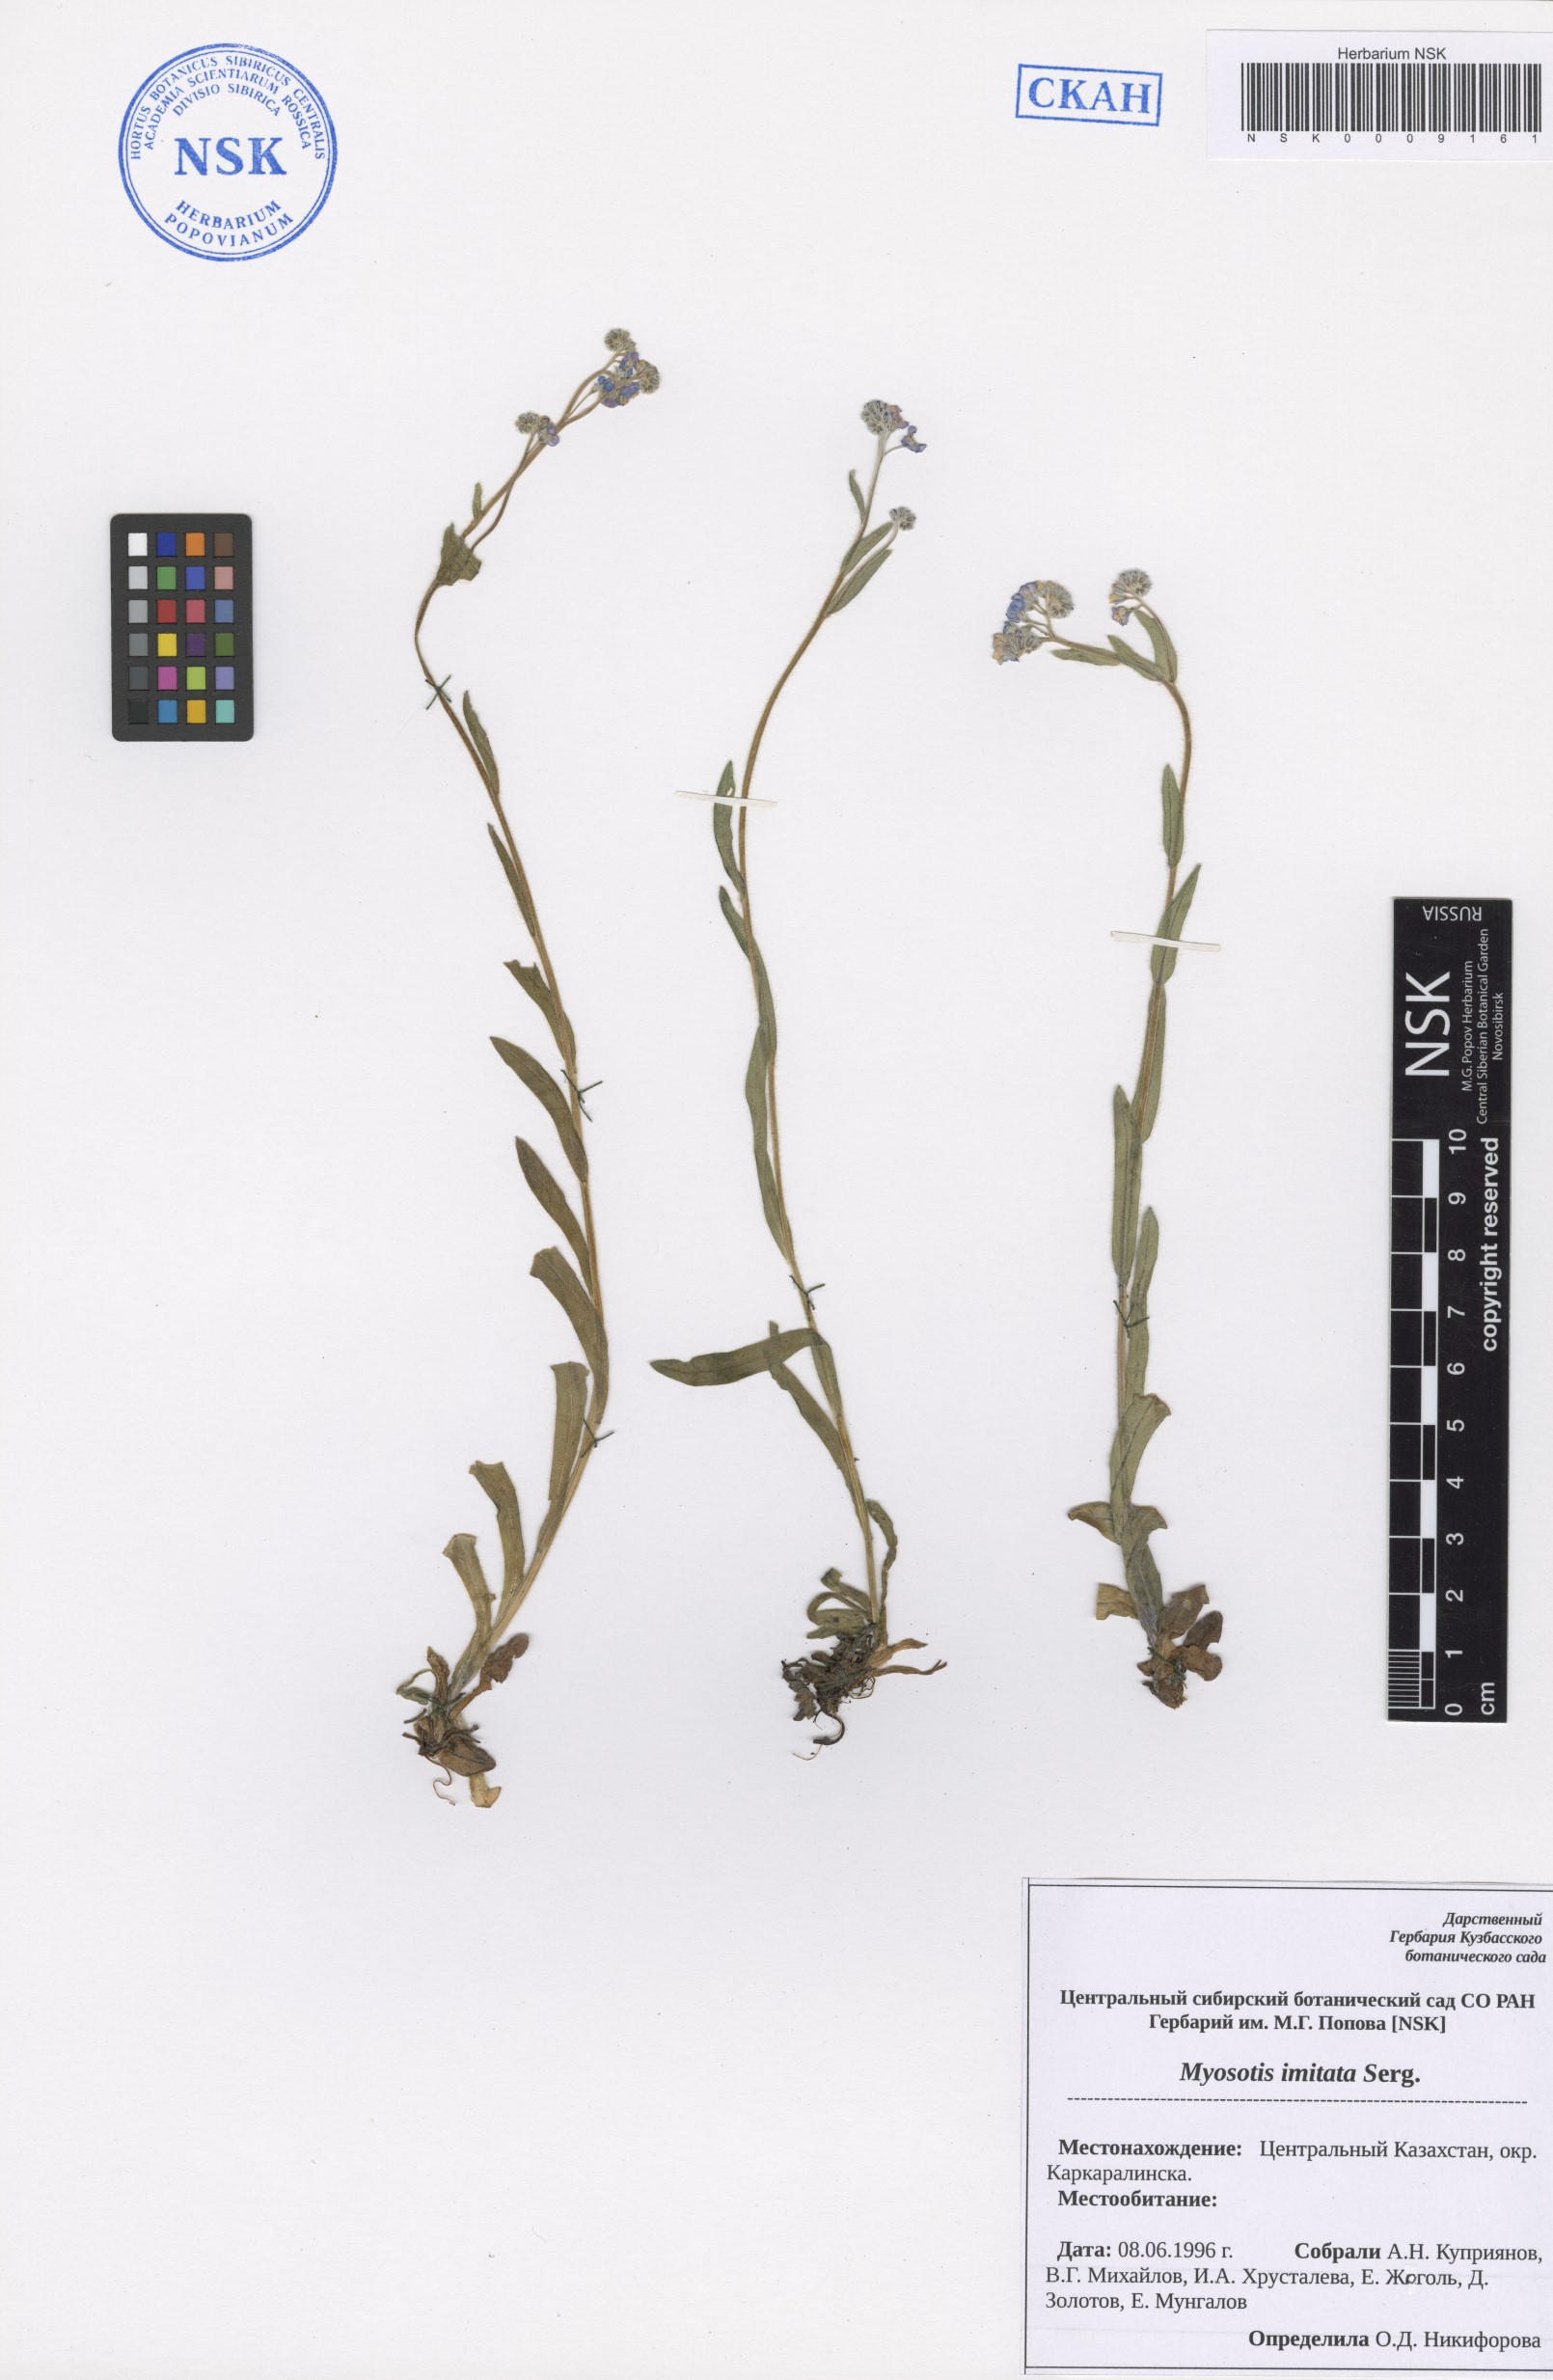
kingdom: Plantae
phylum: Tracheophyta
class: Magnoliopsida
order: Boraginales
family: Boraginaceae
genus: Myosotis
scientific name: Myosotis imitata
